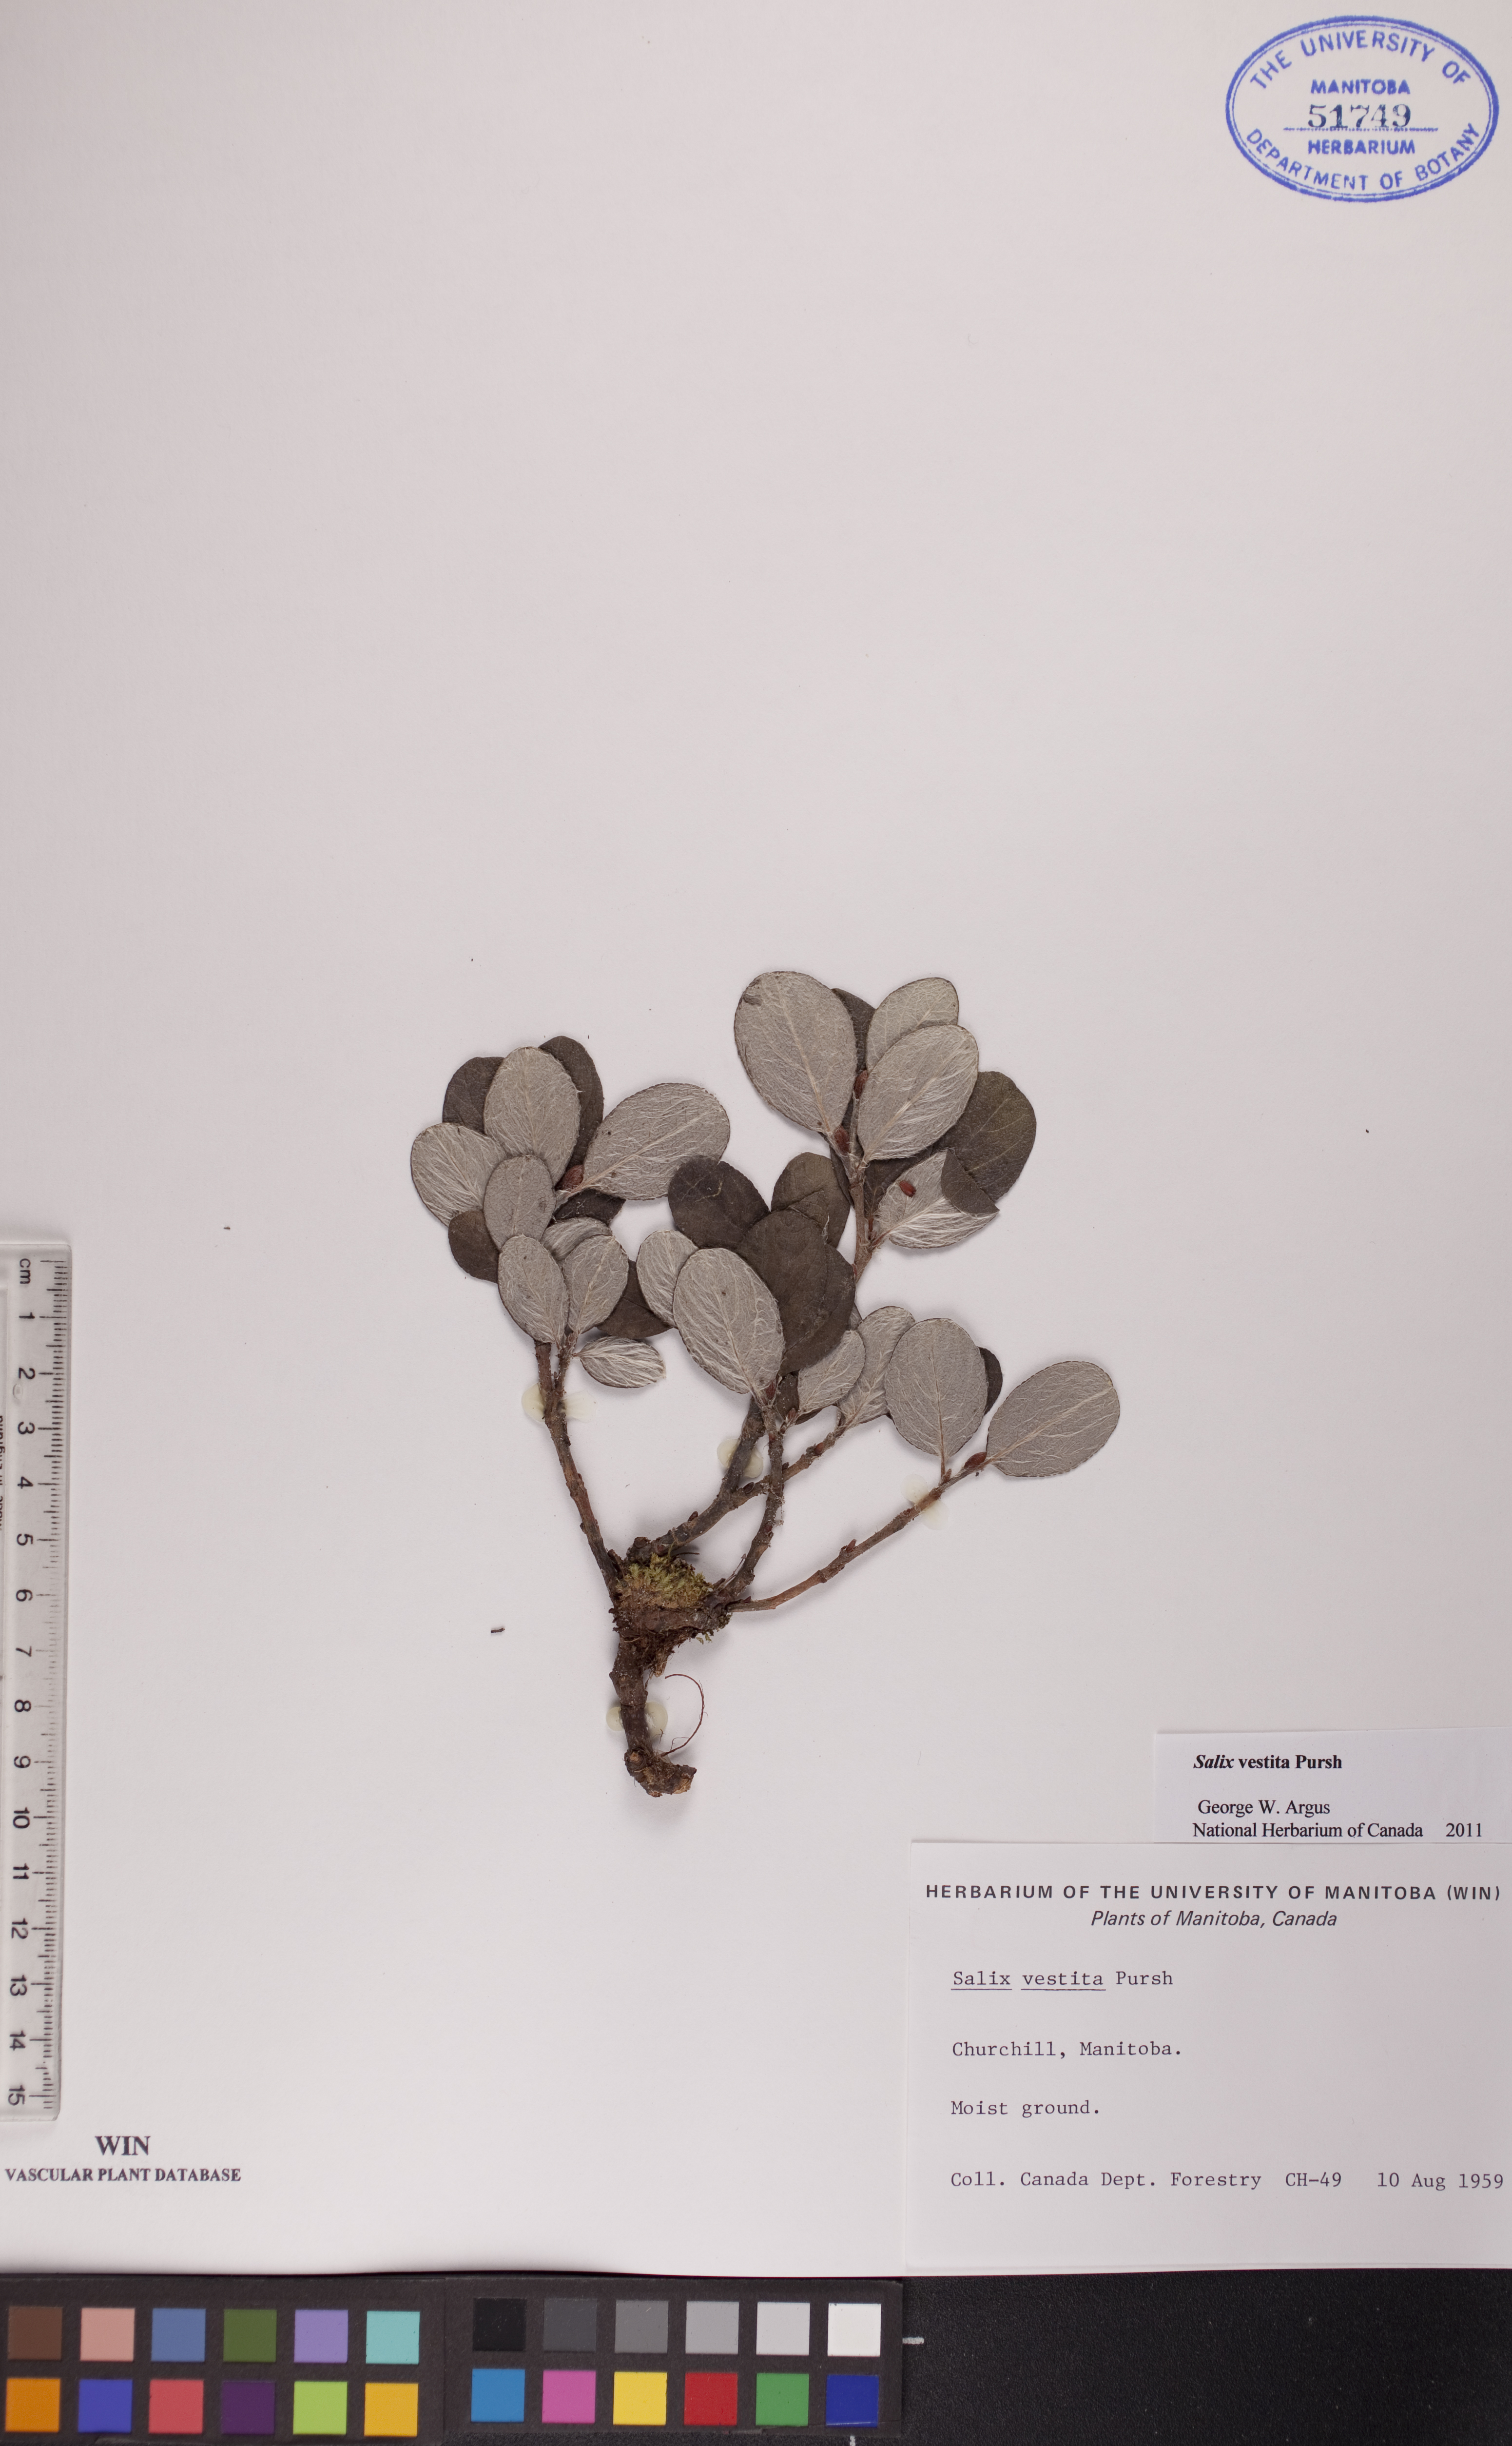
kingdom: Plantae
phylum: Tracheophyta
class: Magnoliopsida
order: Malpighiales
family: Salicaceae
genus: Salix
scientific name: Salix vestita
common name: Hairy willow
